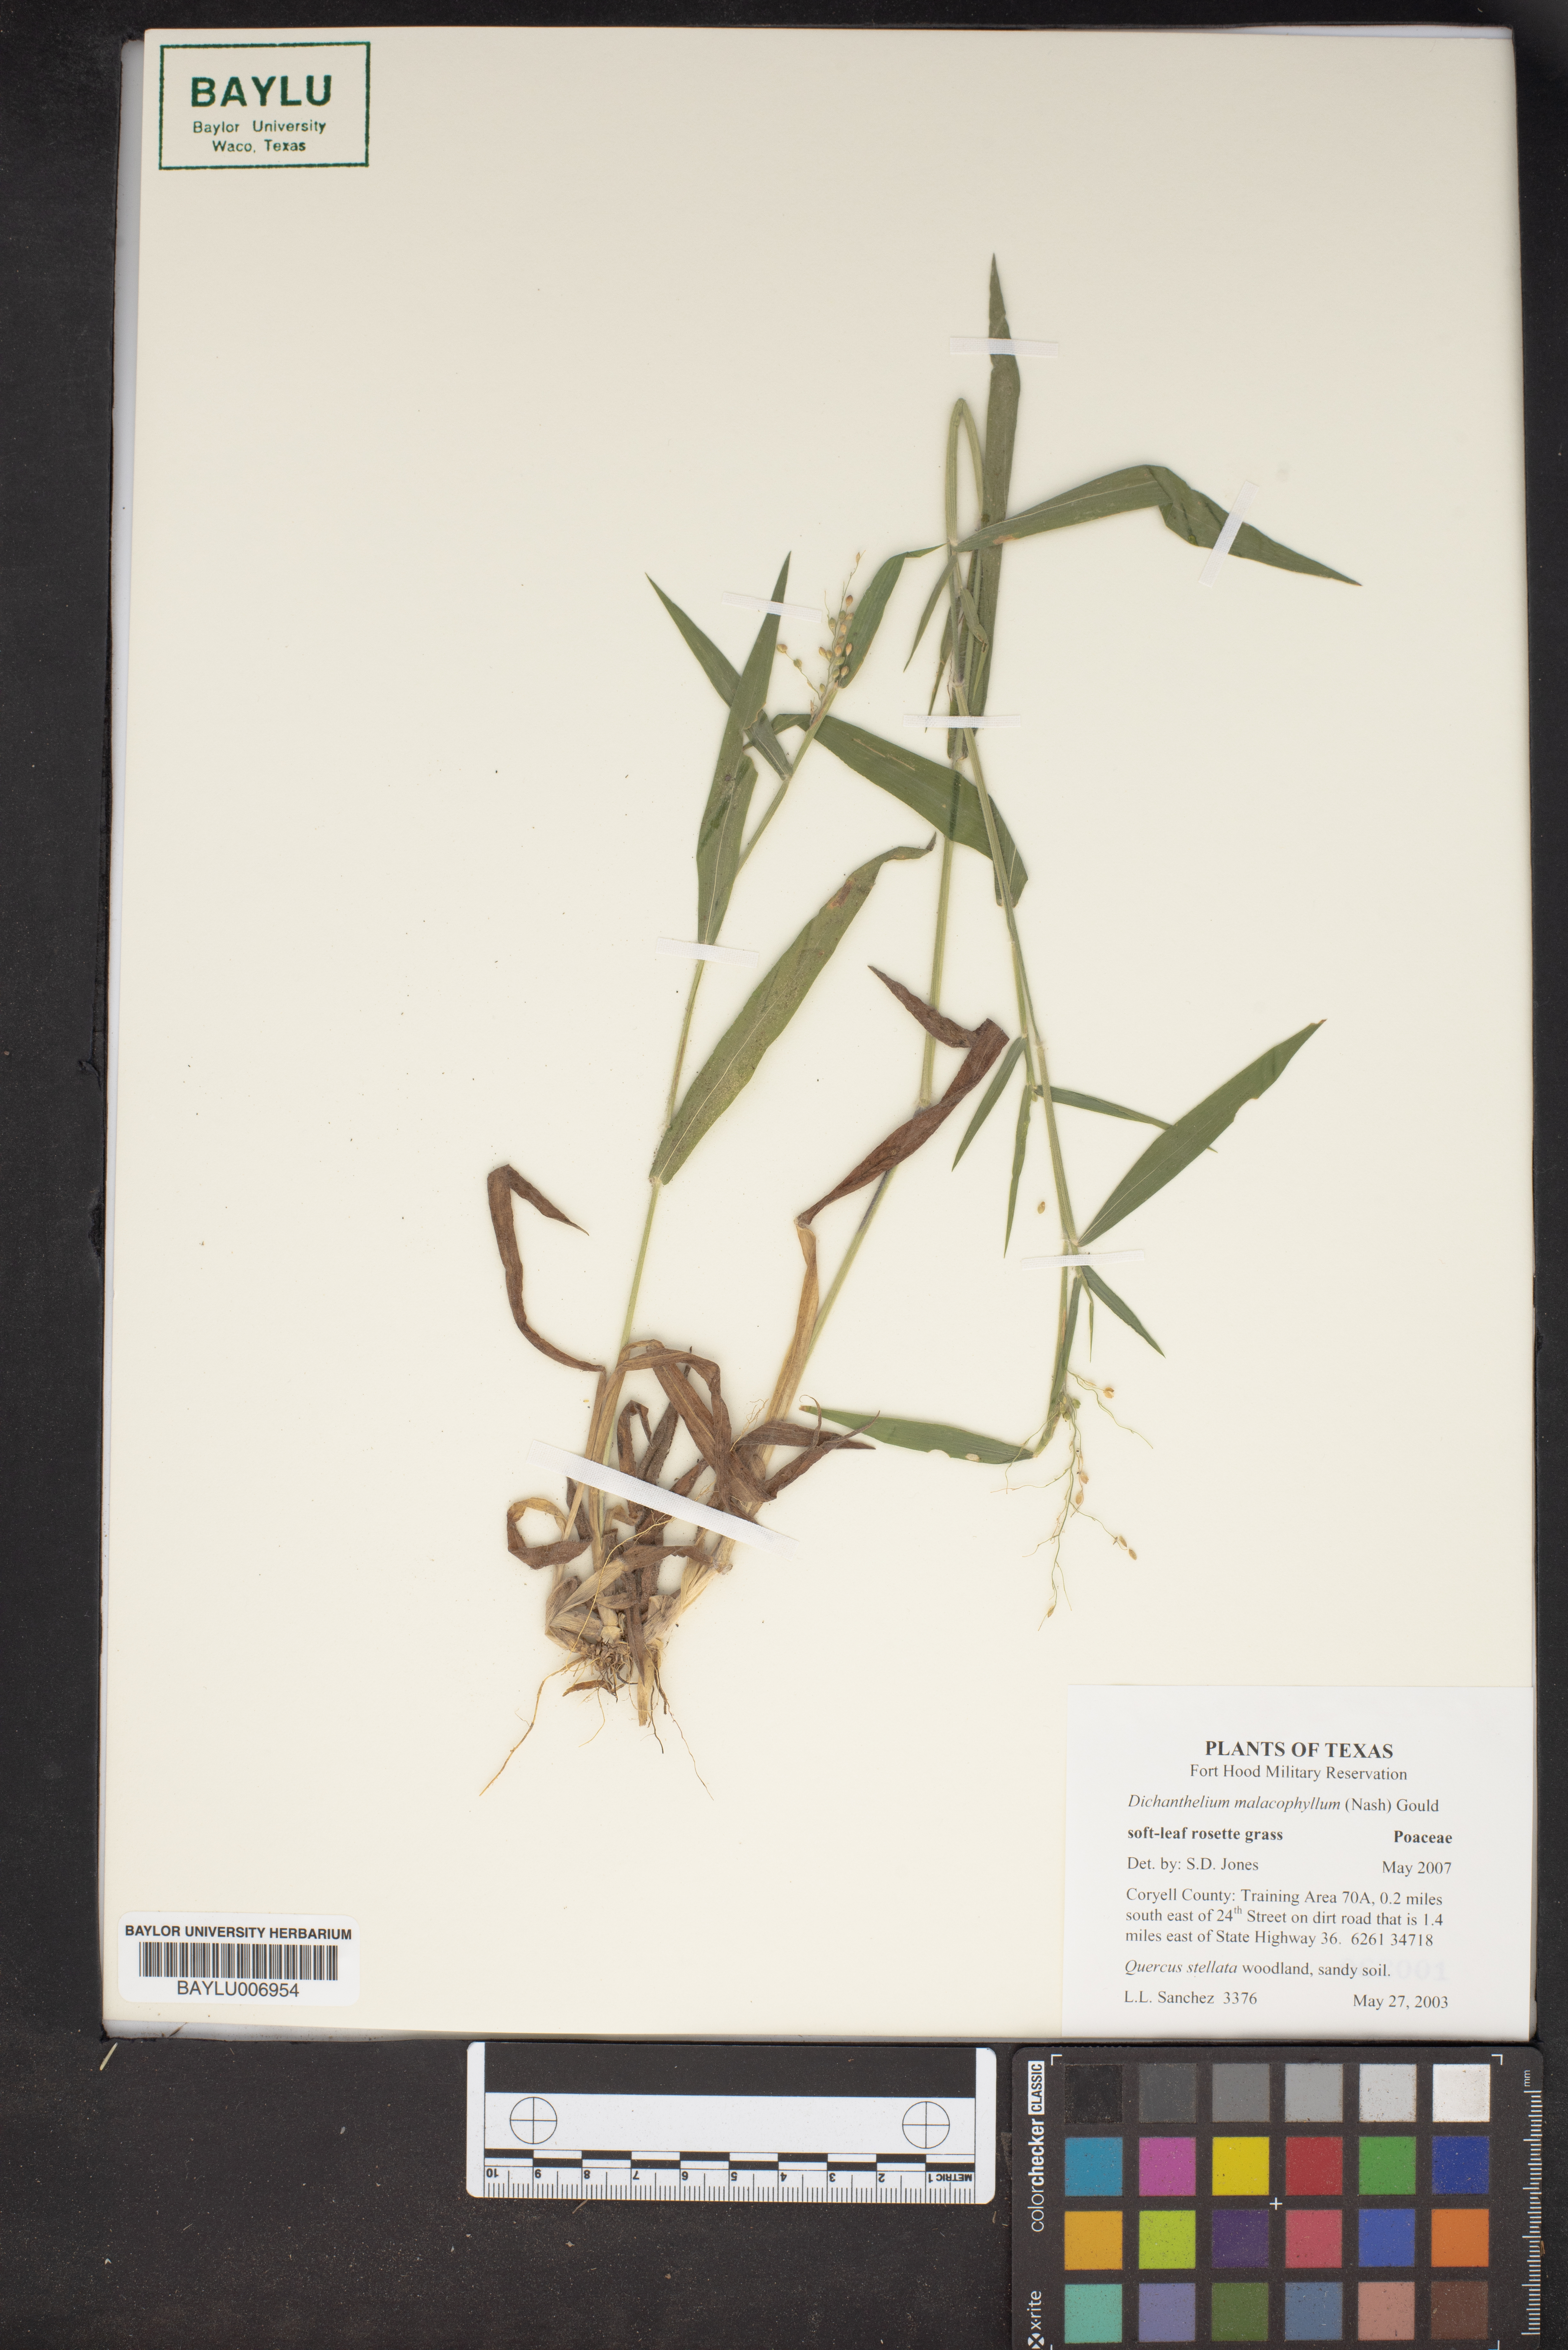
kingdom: Plantae
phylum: Tracheophyta
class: Liliopsida
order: Poales
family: Poaceae
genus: Dichanthelium
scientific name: Dichanthelium malacophyllum
